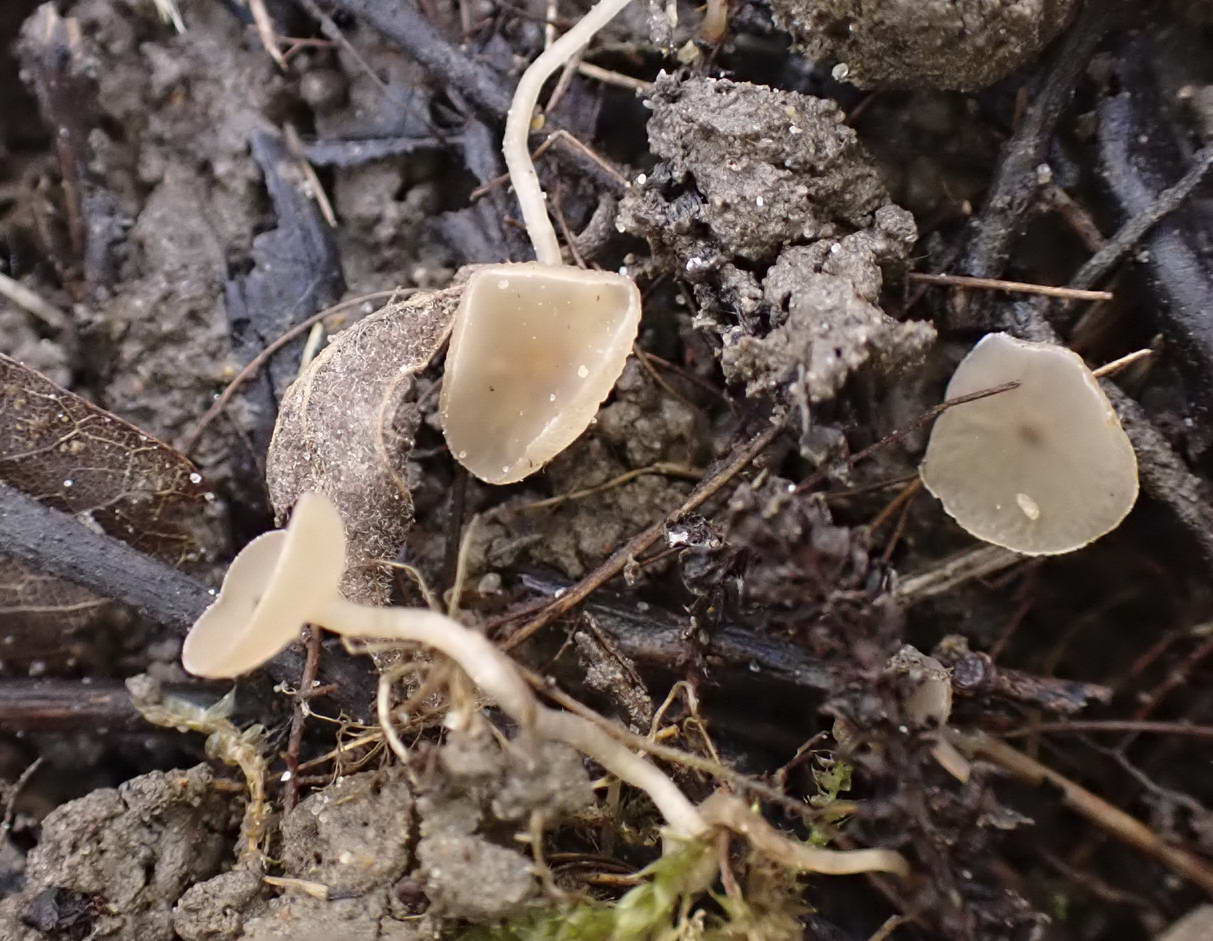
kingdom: Fungi
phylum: Ascomycota
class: Leotiomycetes
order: Helotiales
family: Sclerotiniaceae
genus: Ciboria
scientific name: Ciboria amentacea
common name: ellerakle-knoldskive
